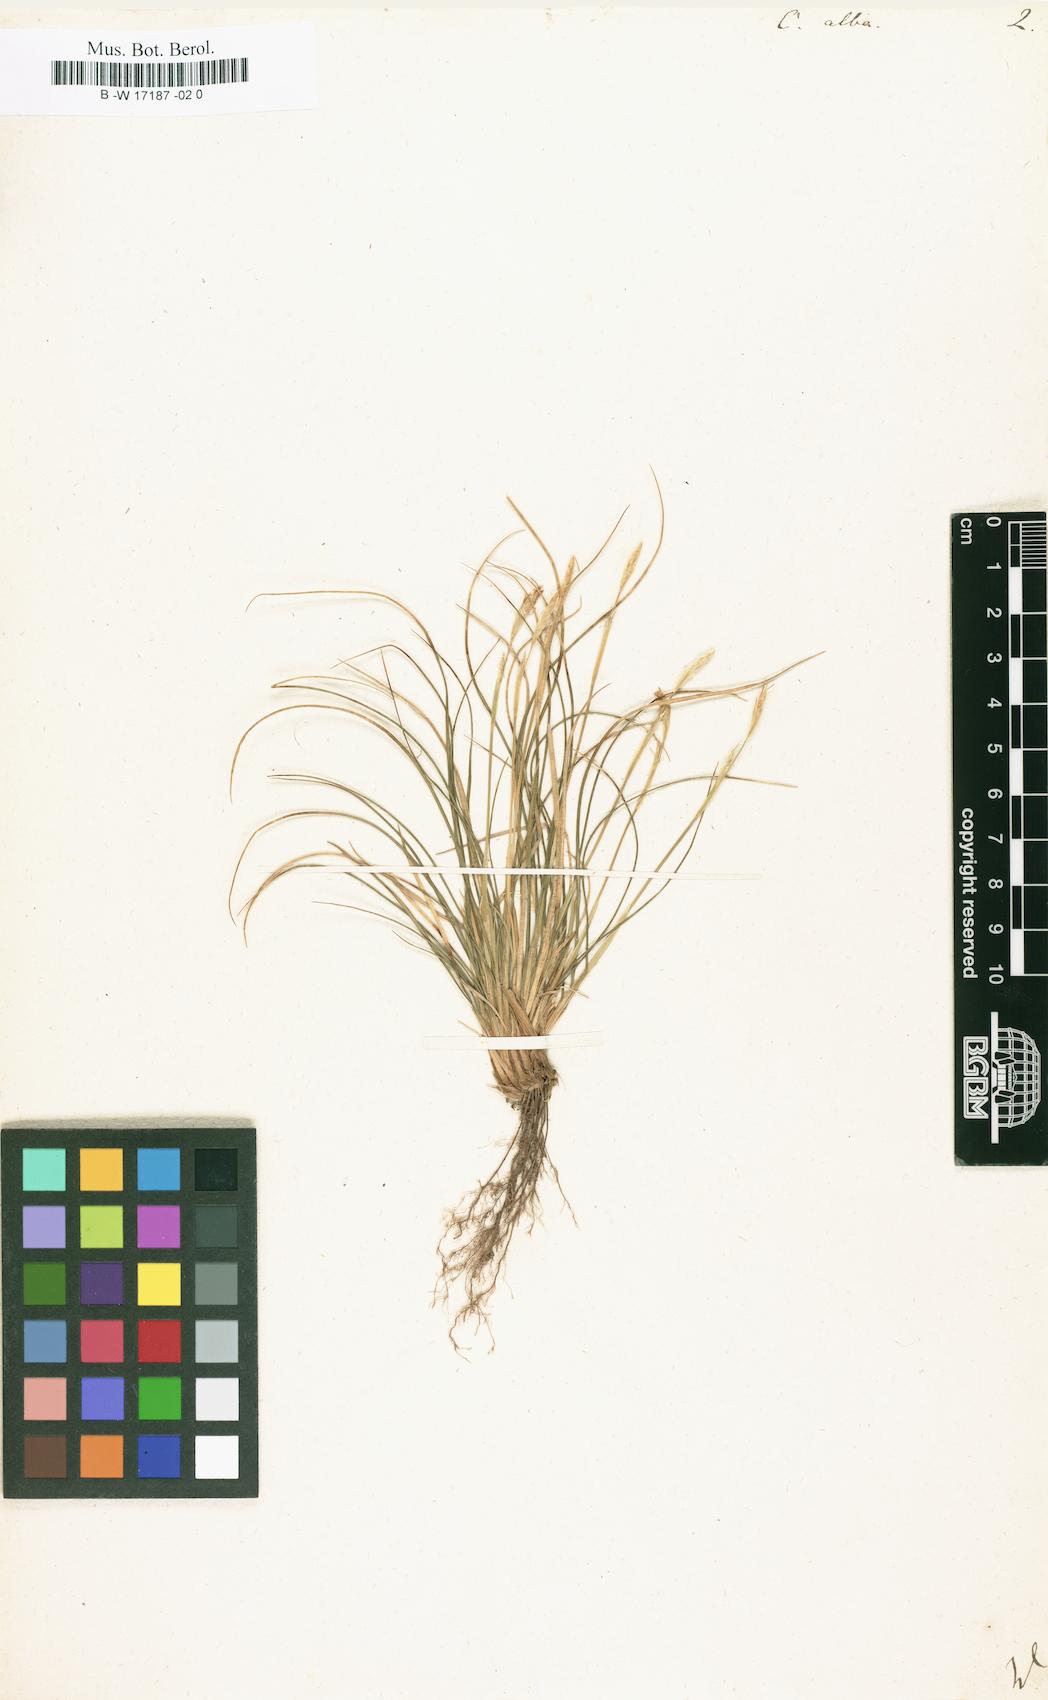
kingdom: Plantae
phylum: Tracheophyta
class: Liliopsida
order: Poales
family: Cyperaceae
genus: Carex
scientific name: Carex alba
